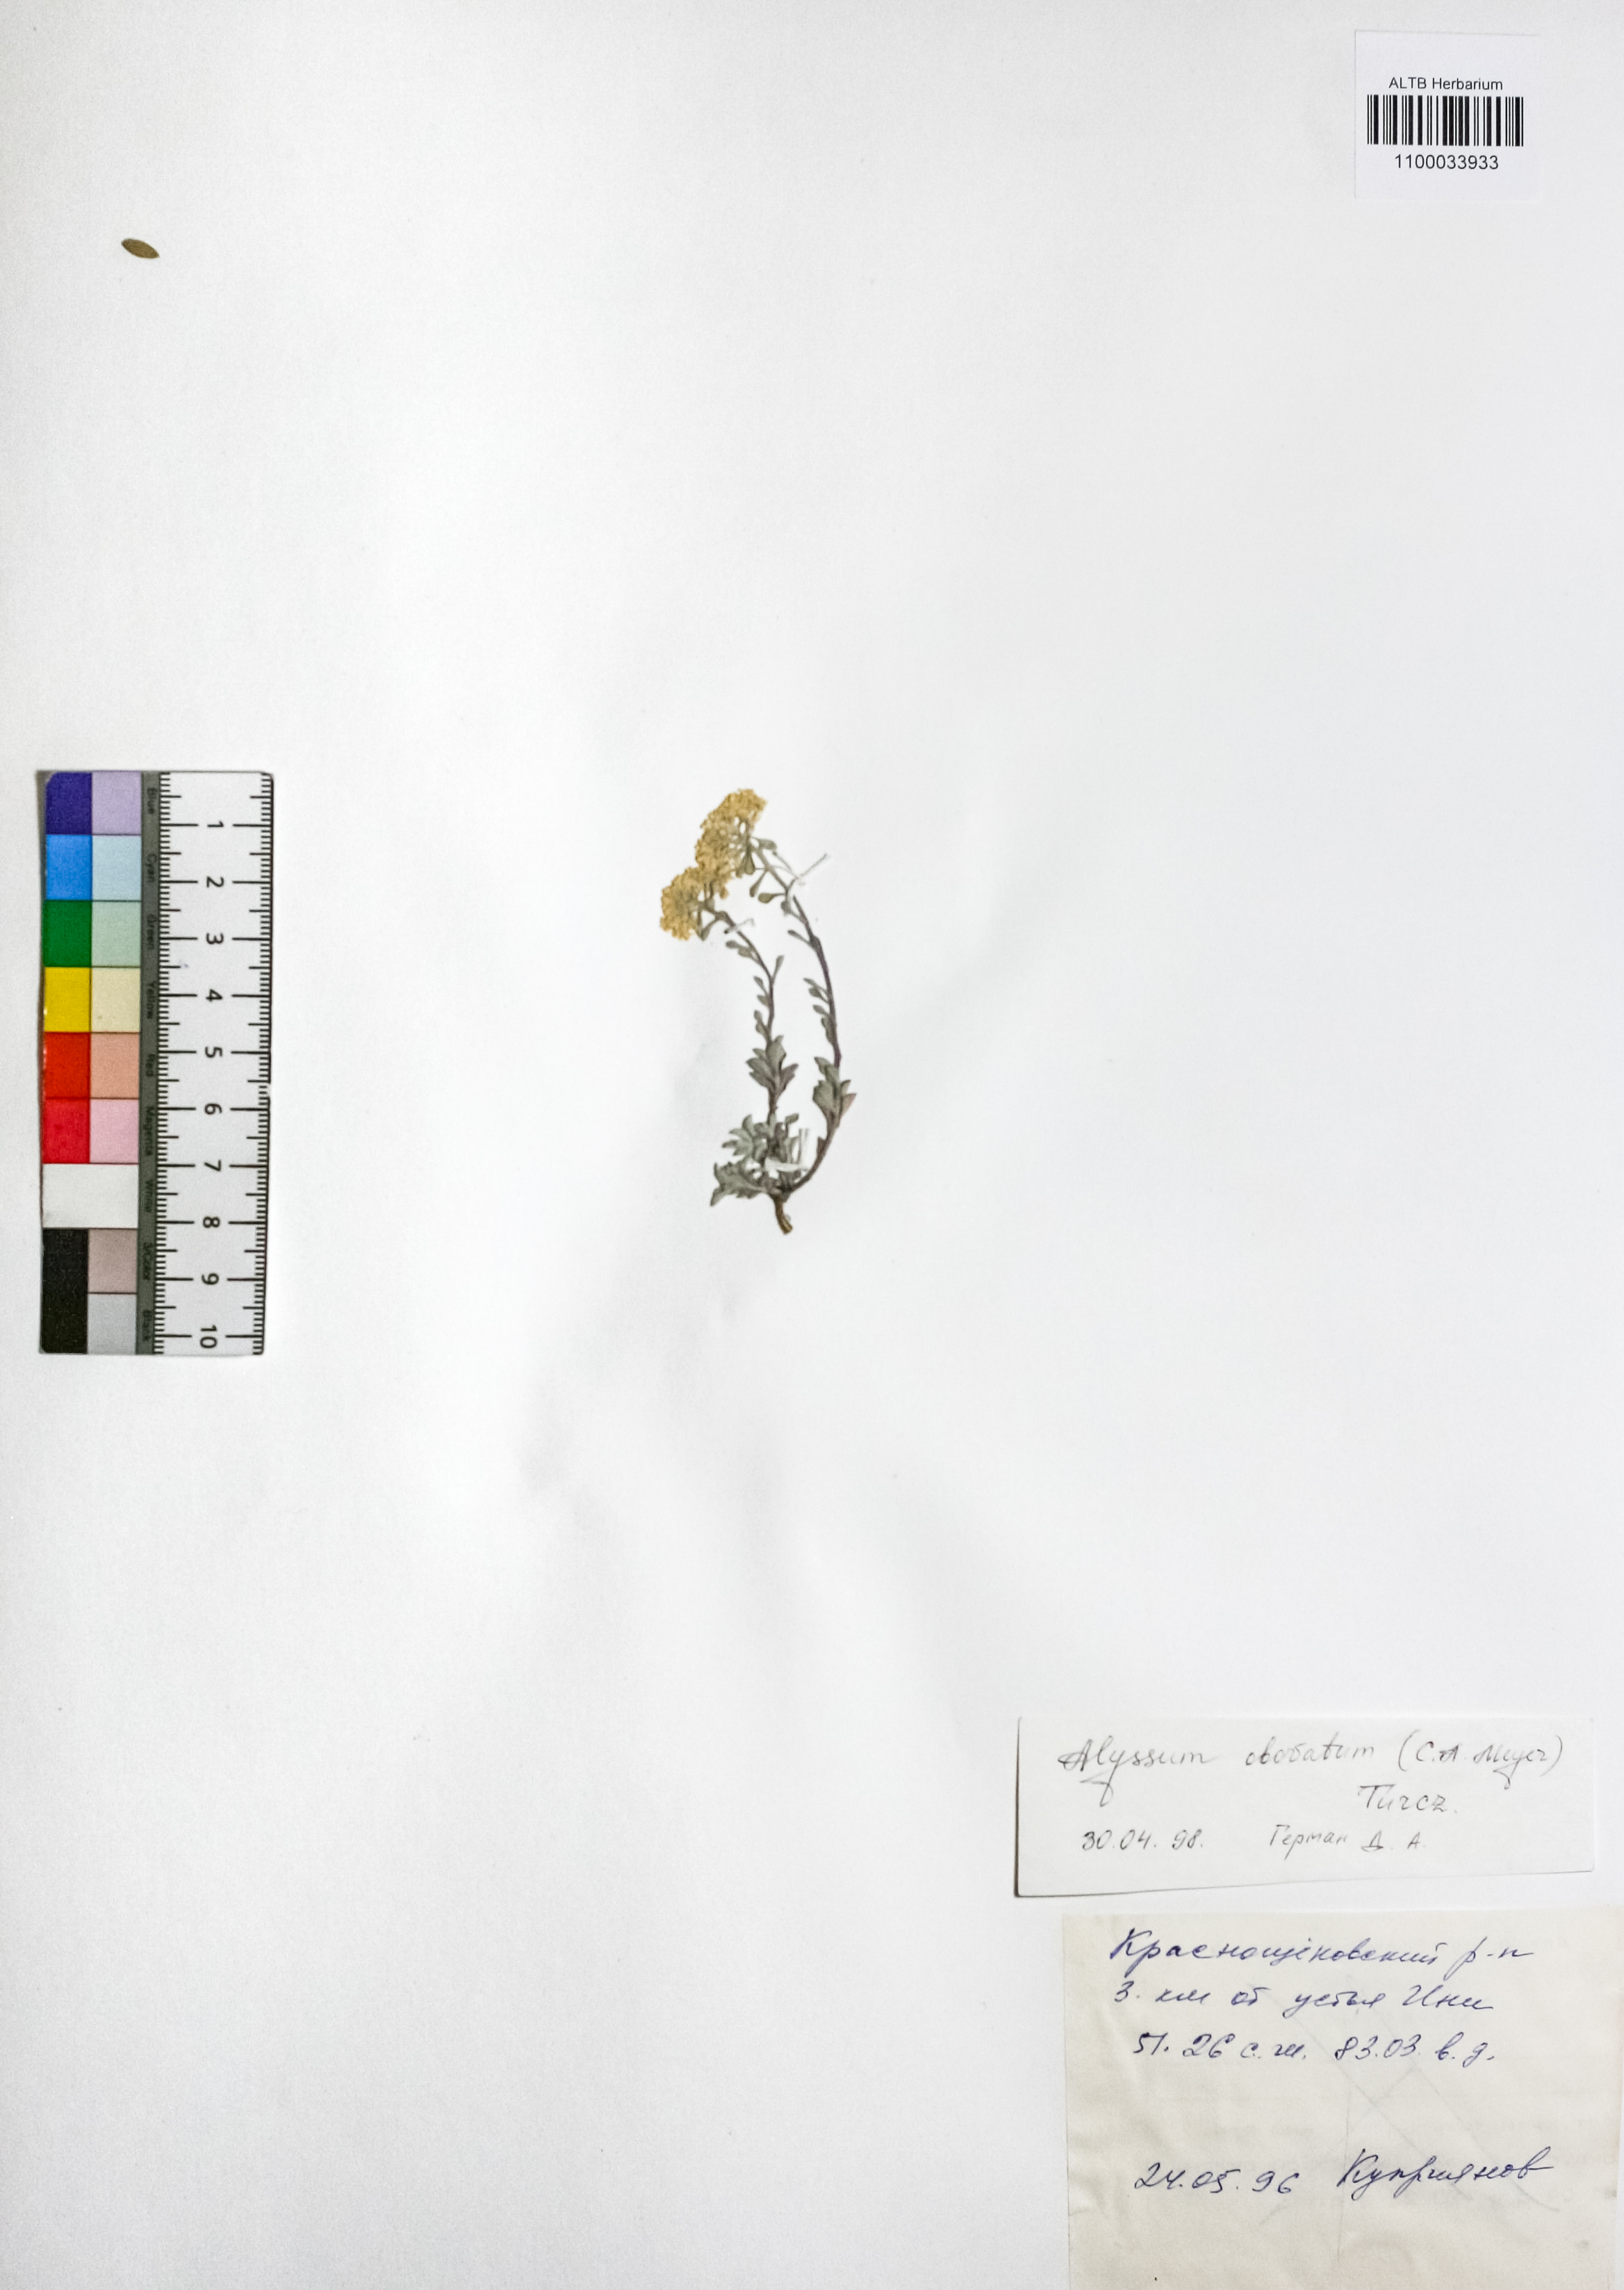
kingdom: Plantae
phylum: Tracheophyta
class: Magnoliopsida
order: Brassicales
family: Brassicaceae
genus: Odontarrhena
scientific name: Odontarrhena obovata
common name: American alyssum
